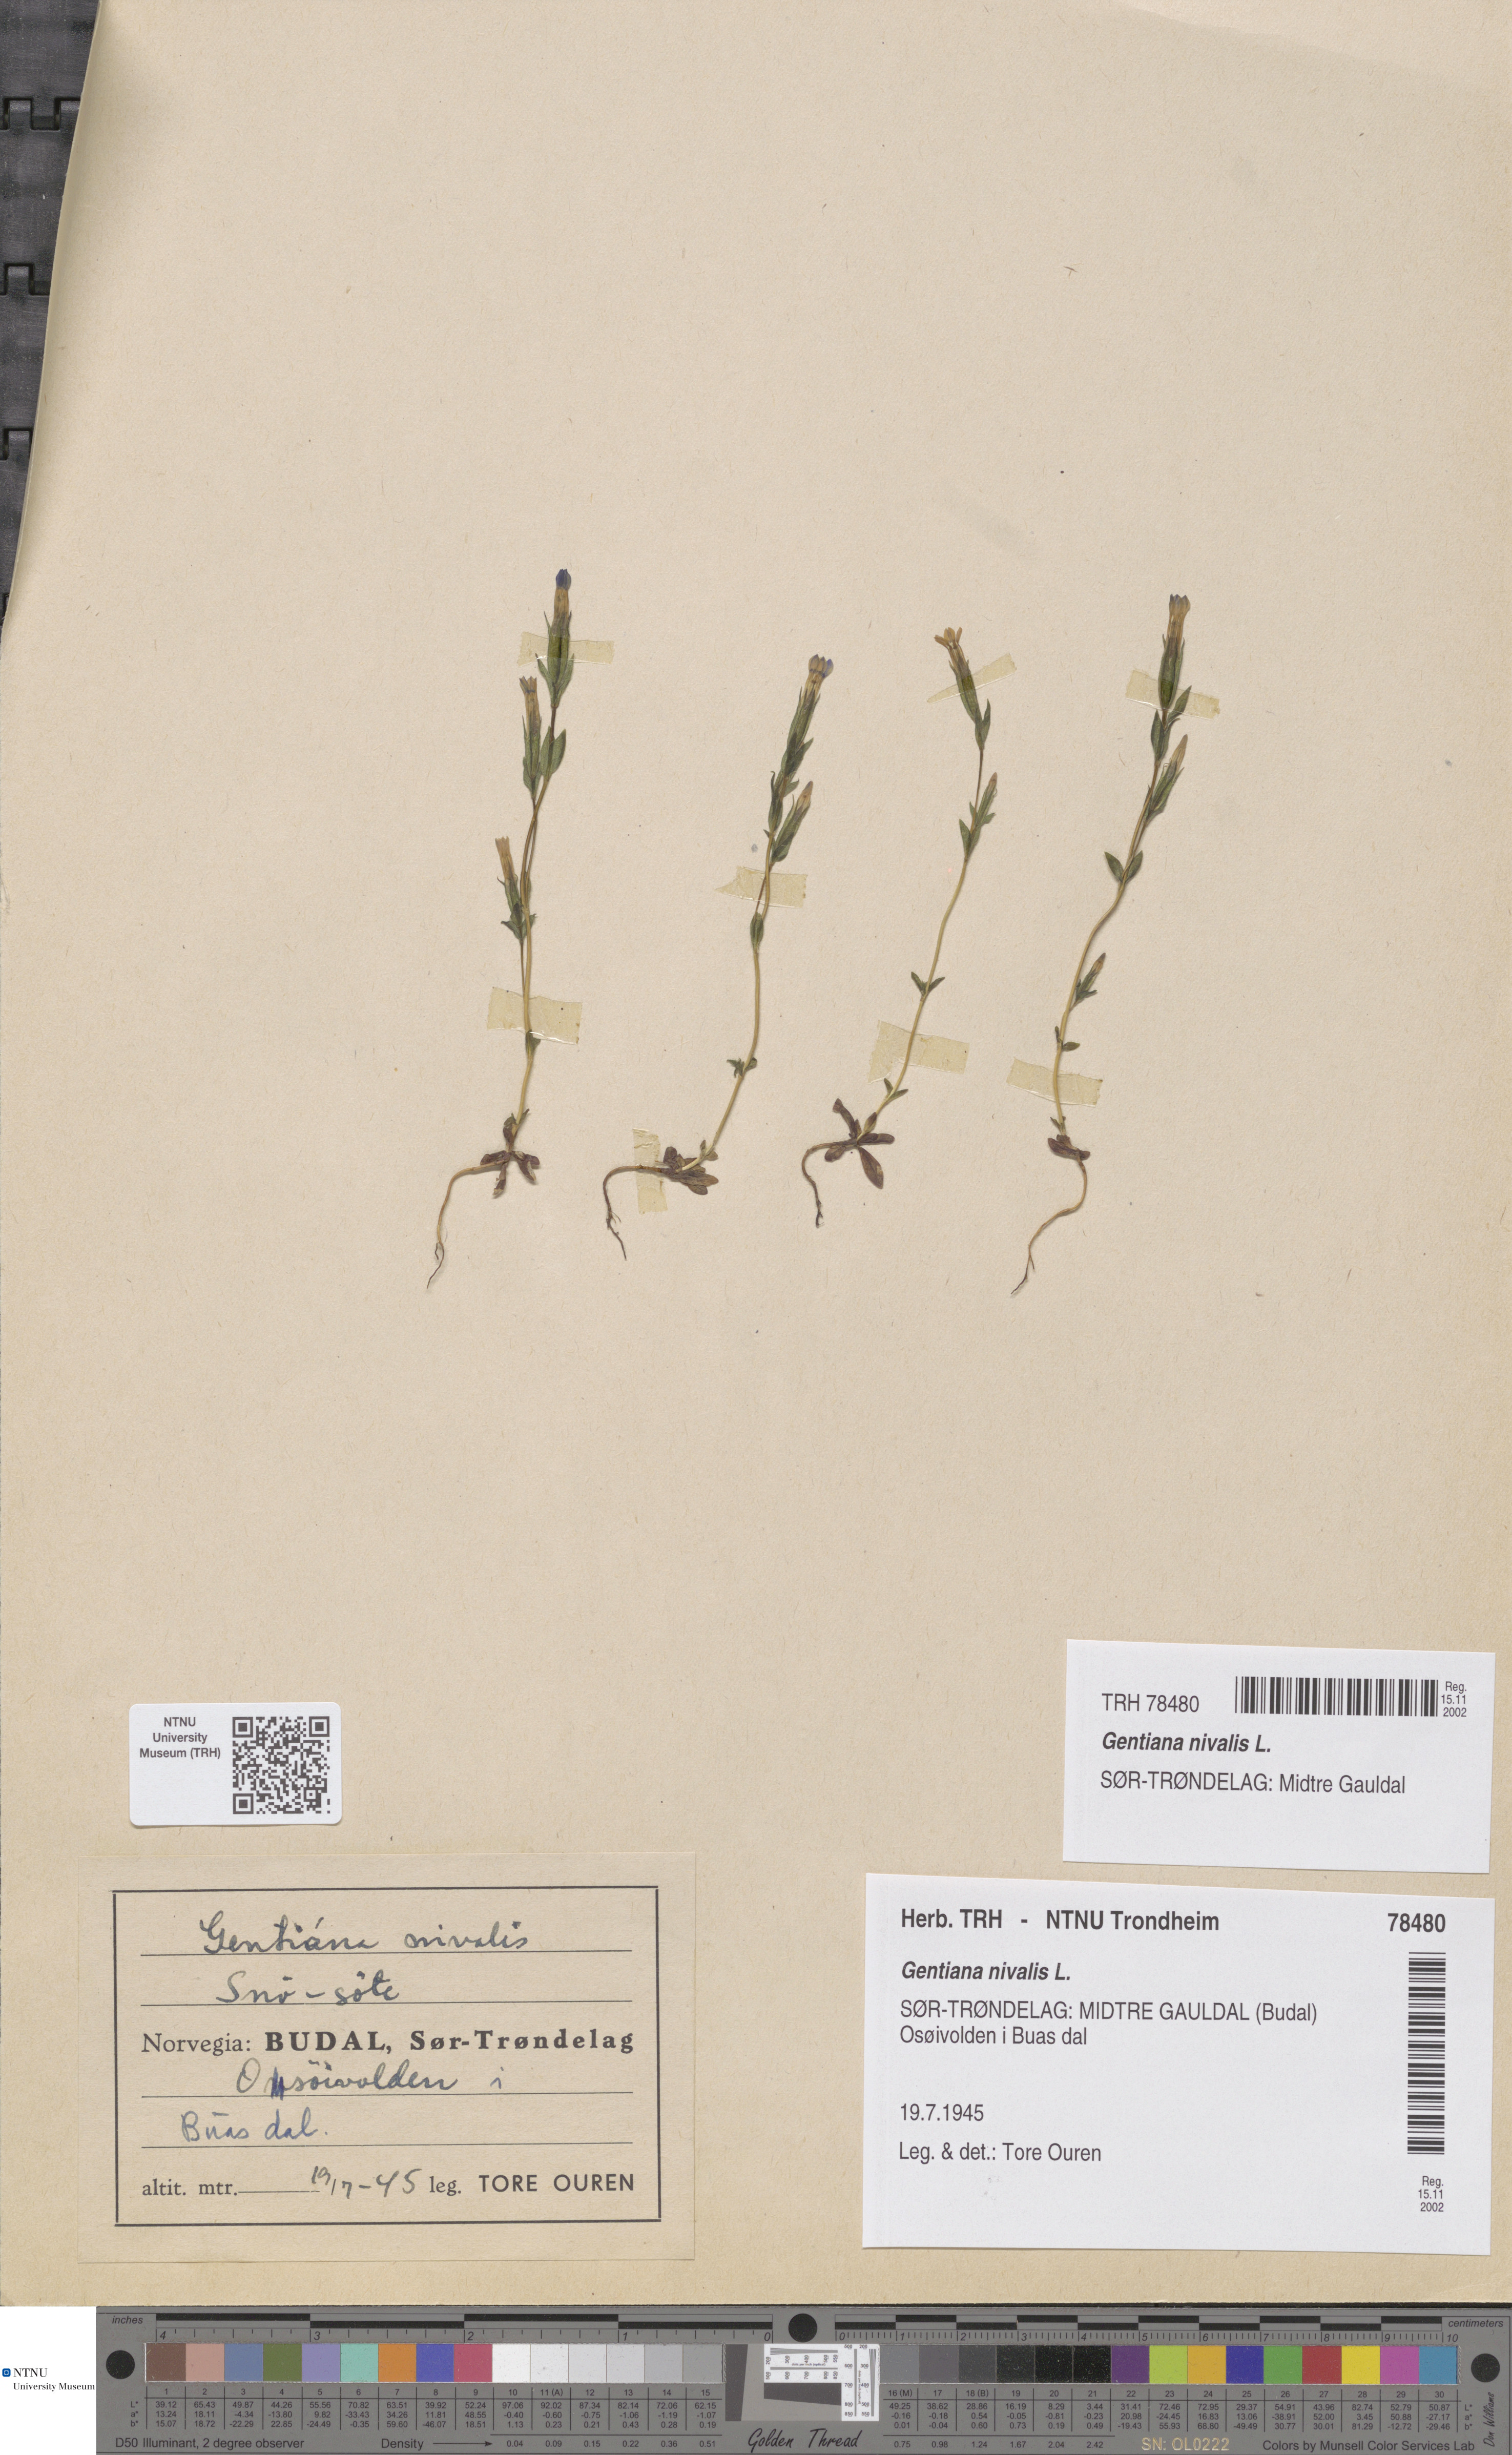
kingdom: Plantae
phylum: Tracheophyta
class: Magnoliopsida
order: Gentianales
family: Gentianaceae
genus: Gentiana
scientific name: Gentiana nivalis
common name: Alpine gentian
